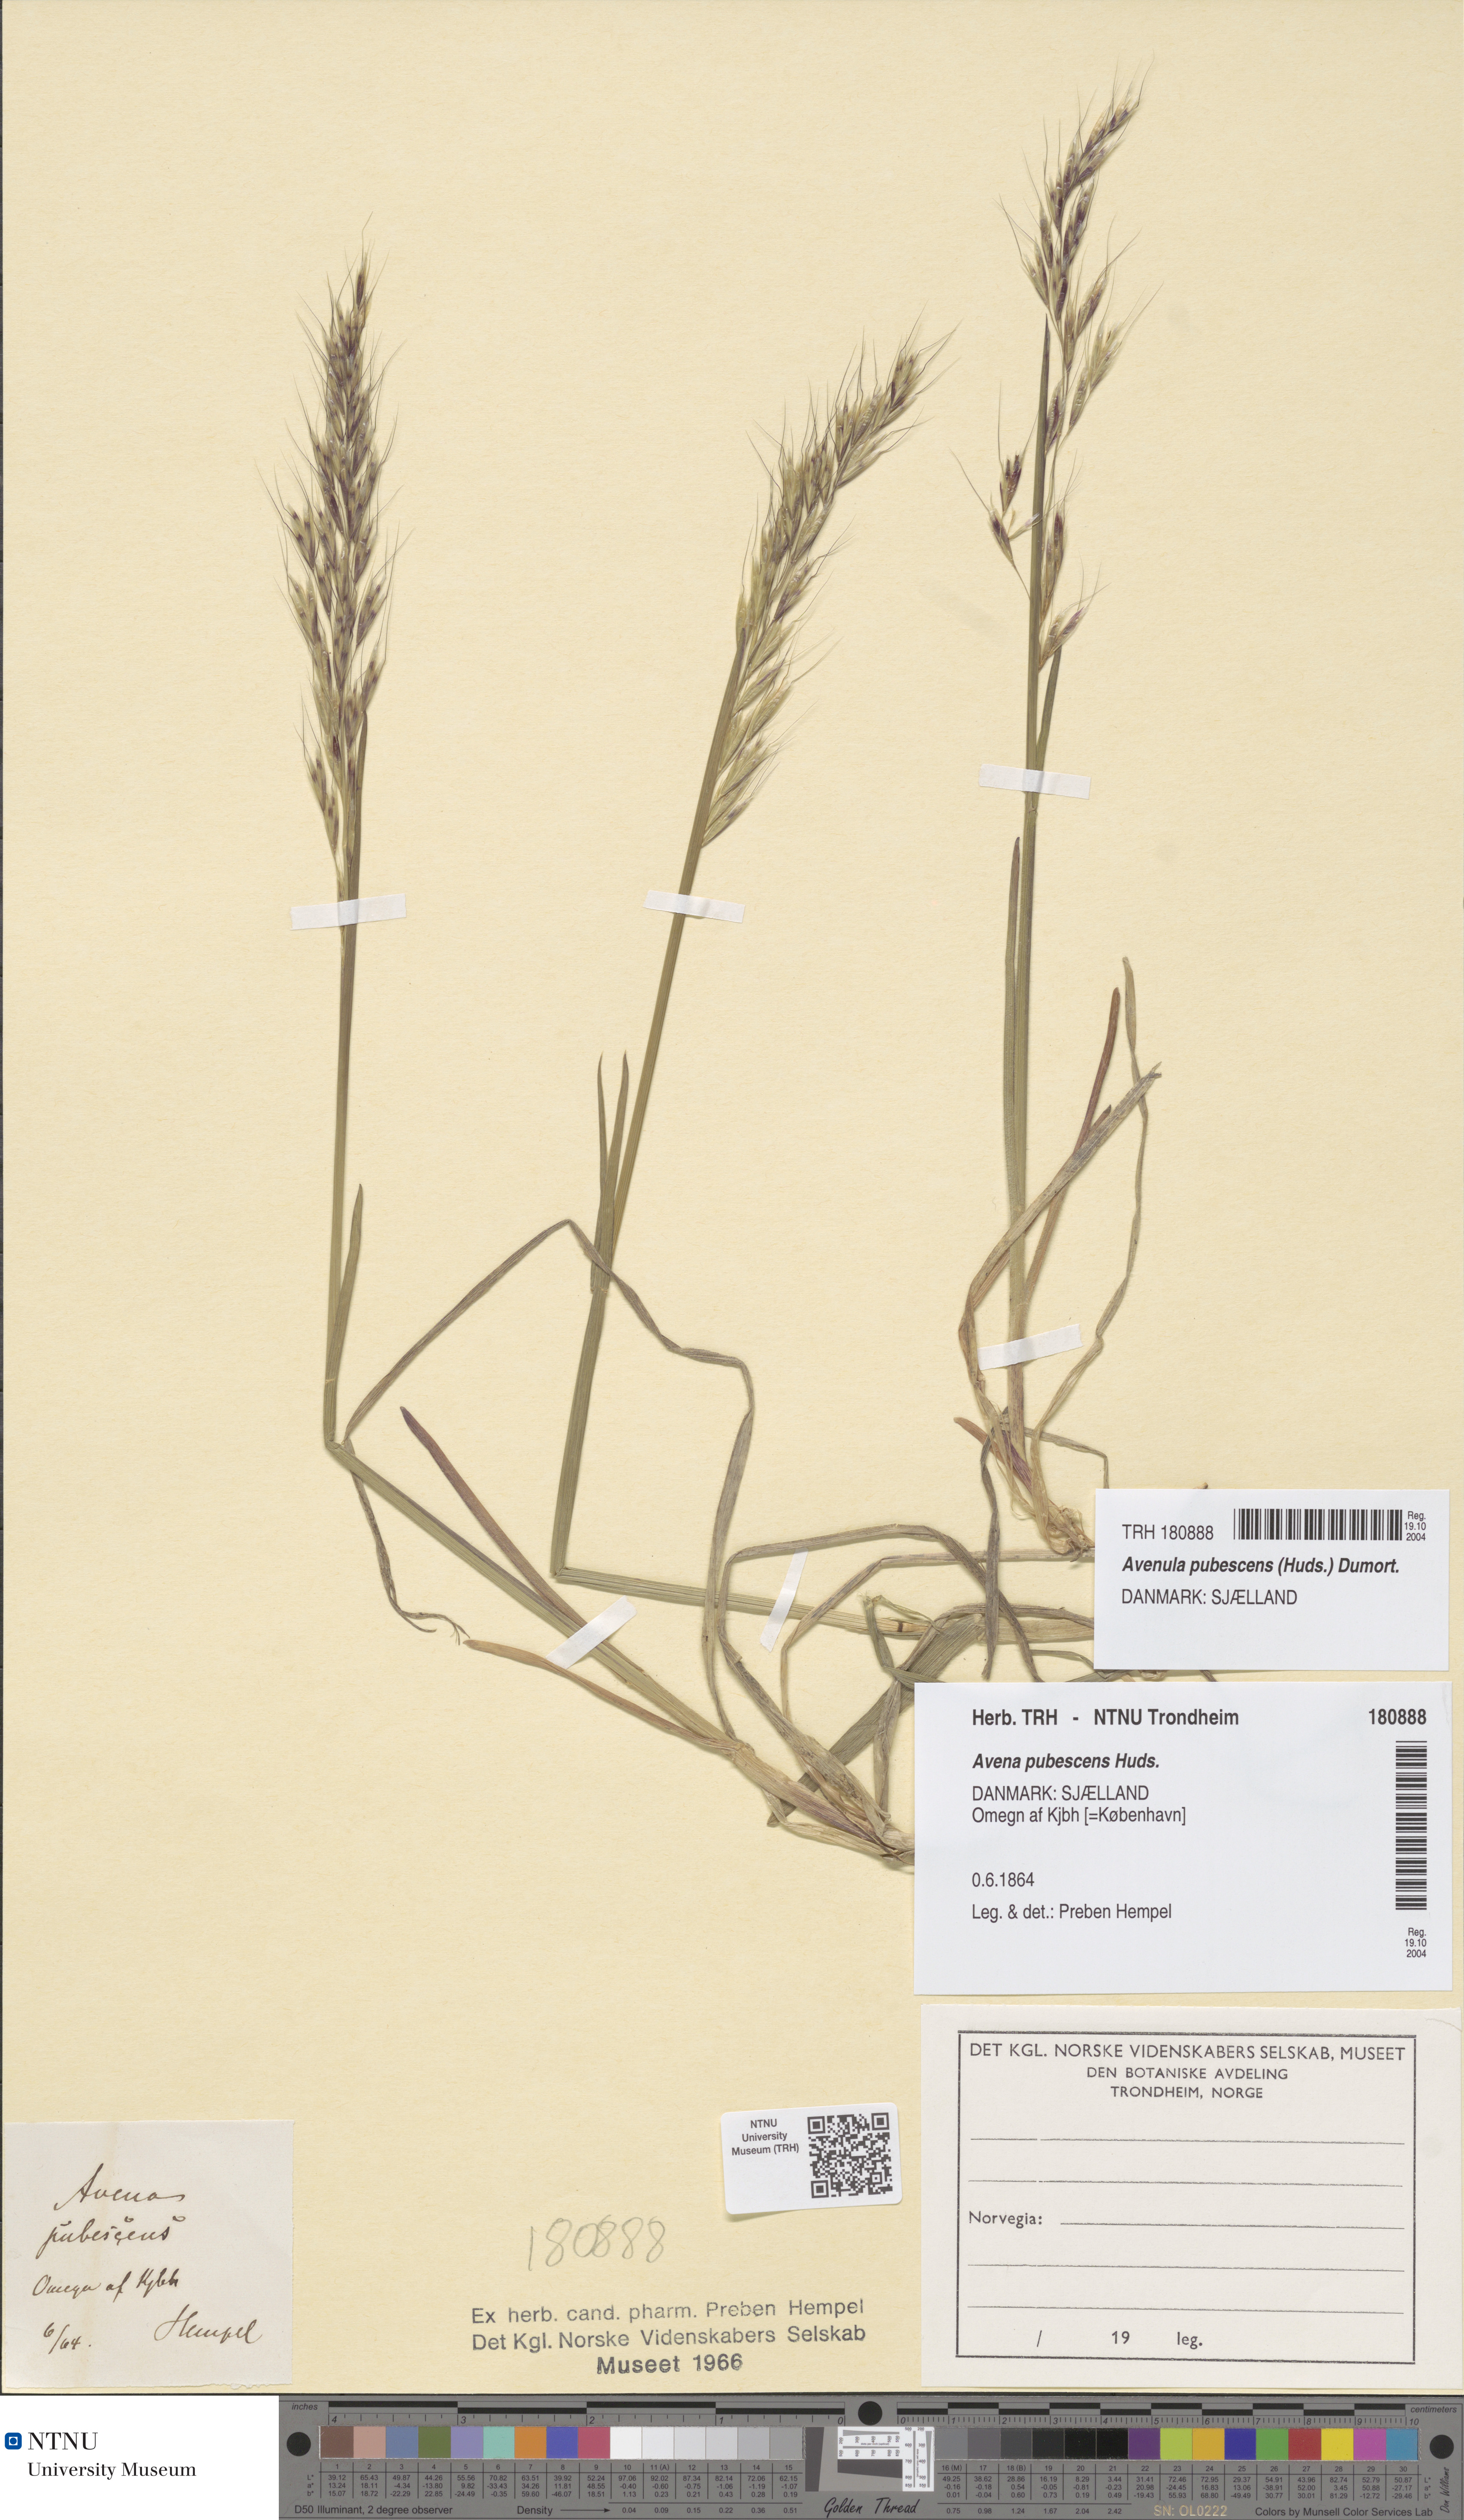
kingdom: Plantae
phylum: Tracheophyta
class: Liliopsida
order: Poales
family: Poaceae
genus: Avenula
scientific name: Avenula pubescens
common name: Downy alpine oatgrass
